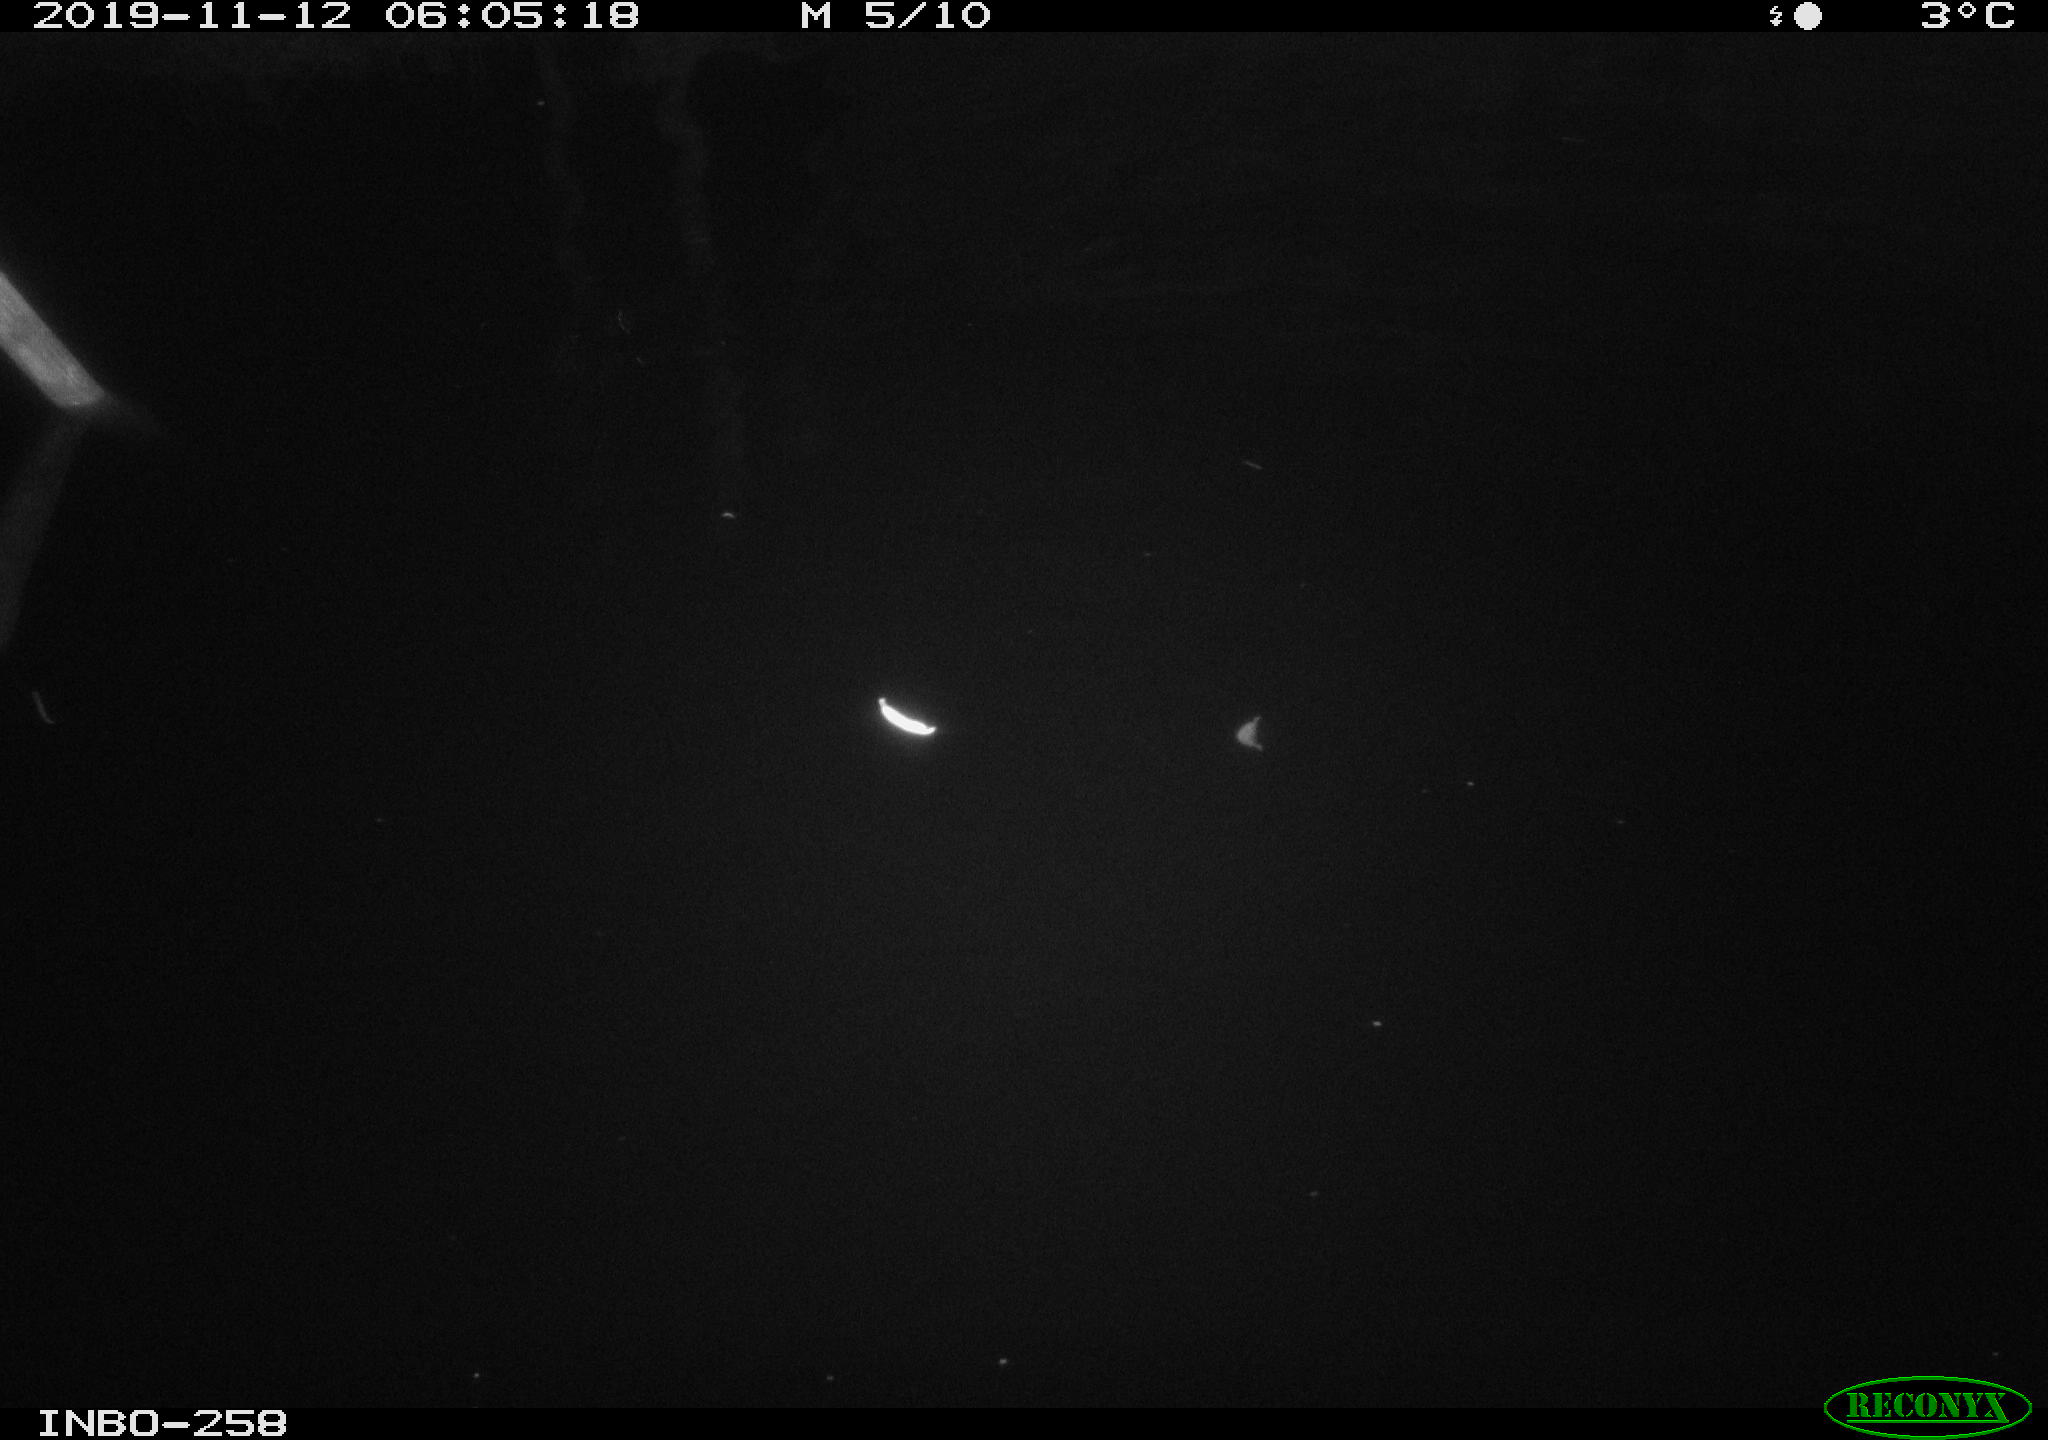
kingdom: Animalia
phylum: Chordata
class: Aves
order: Anseriformes
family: Anatidae
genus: Anas
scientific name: Anas platyrhynchos
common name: Mallard
